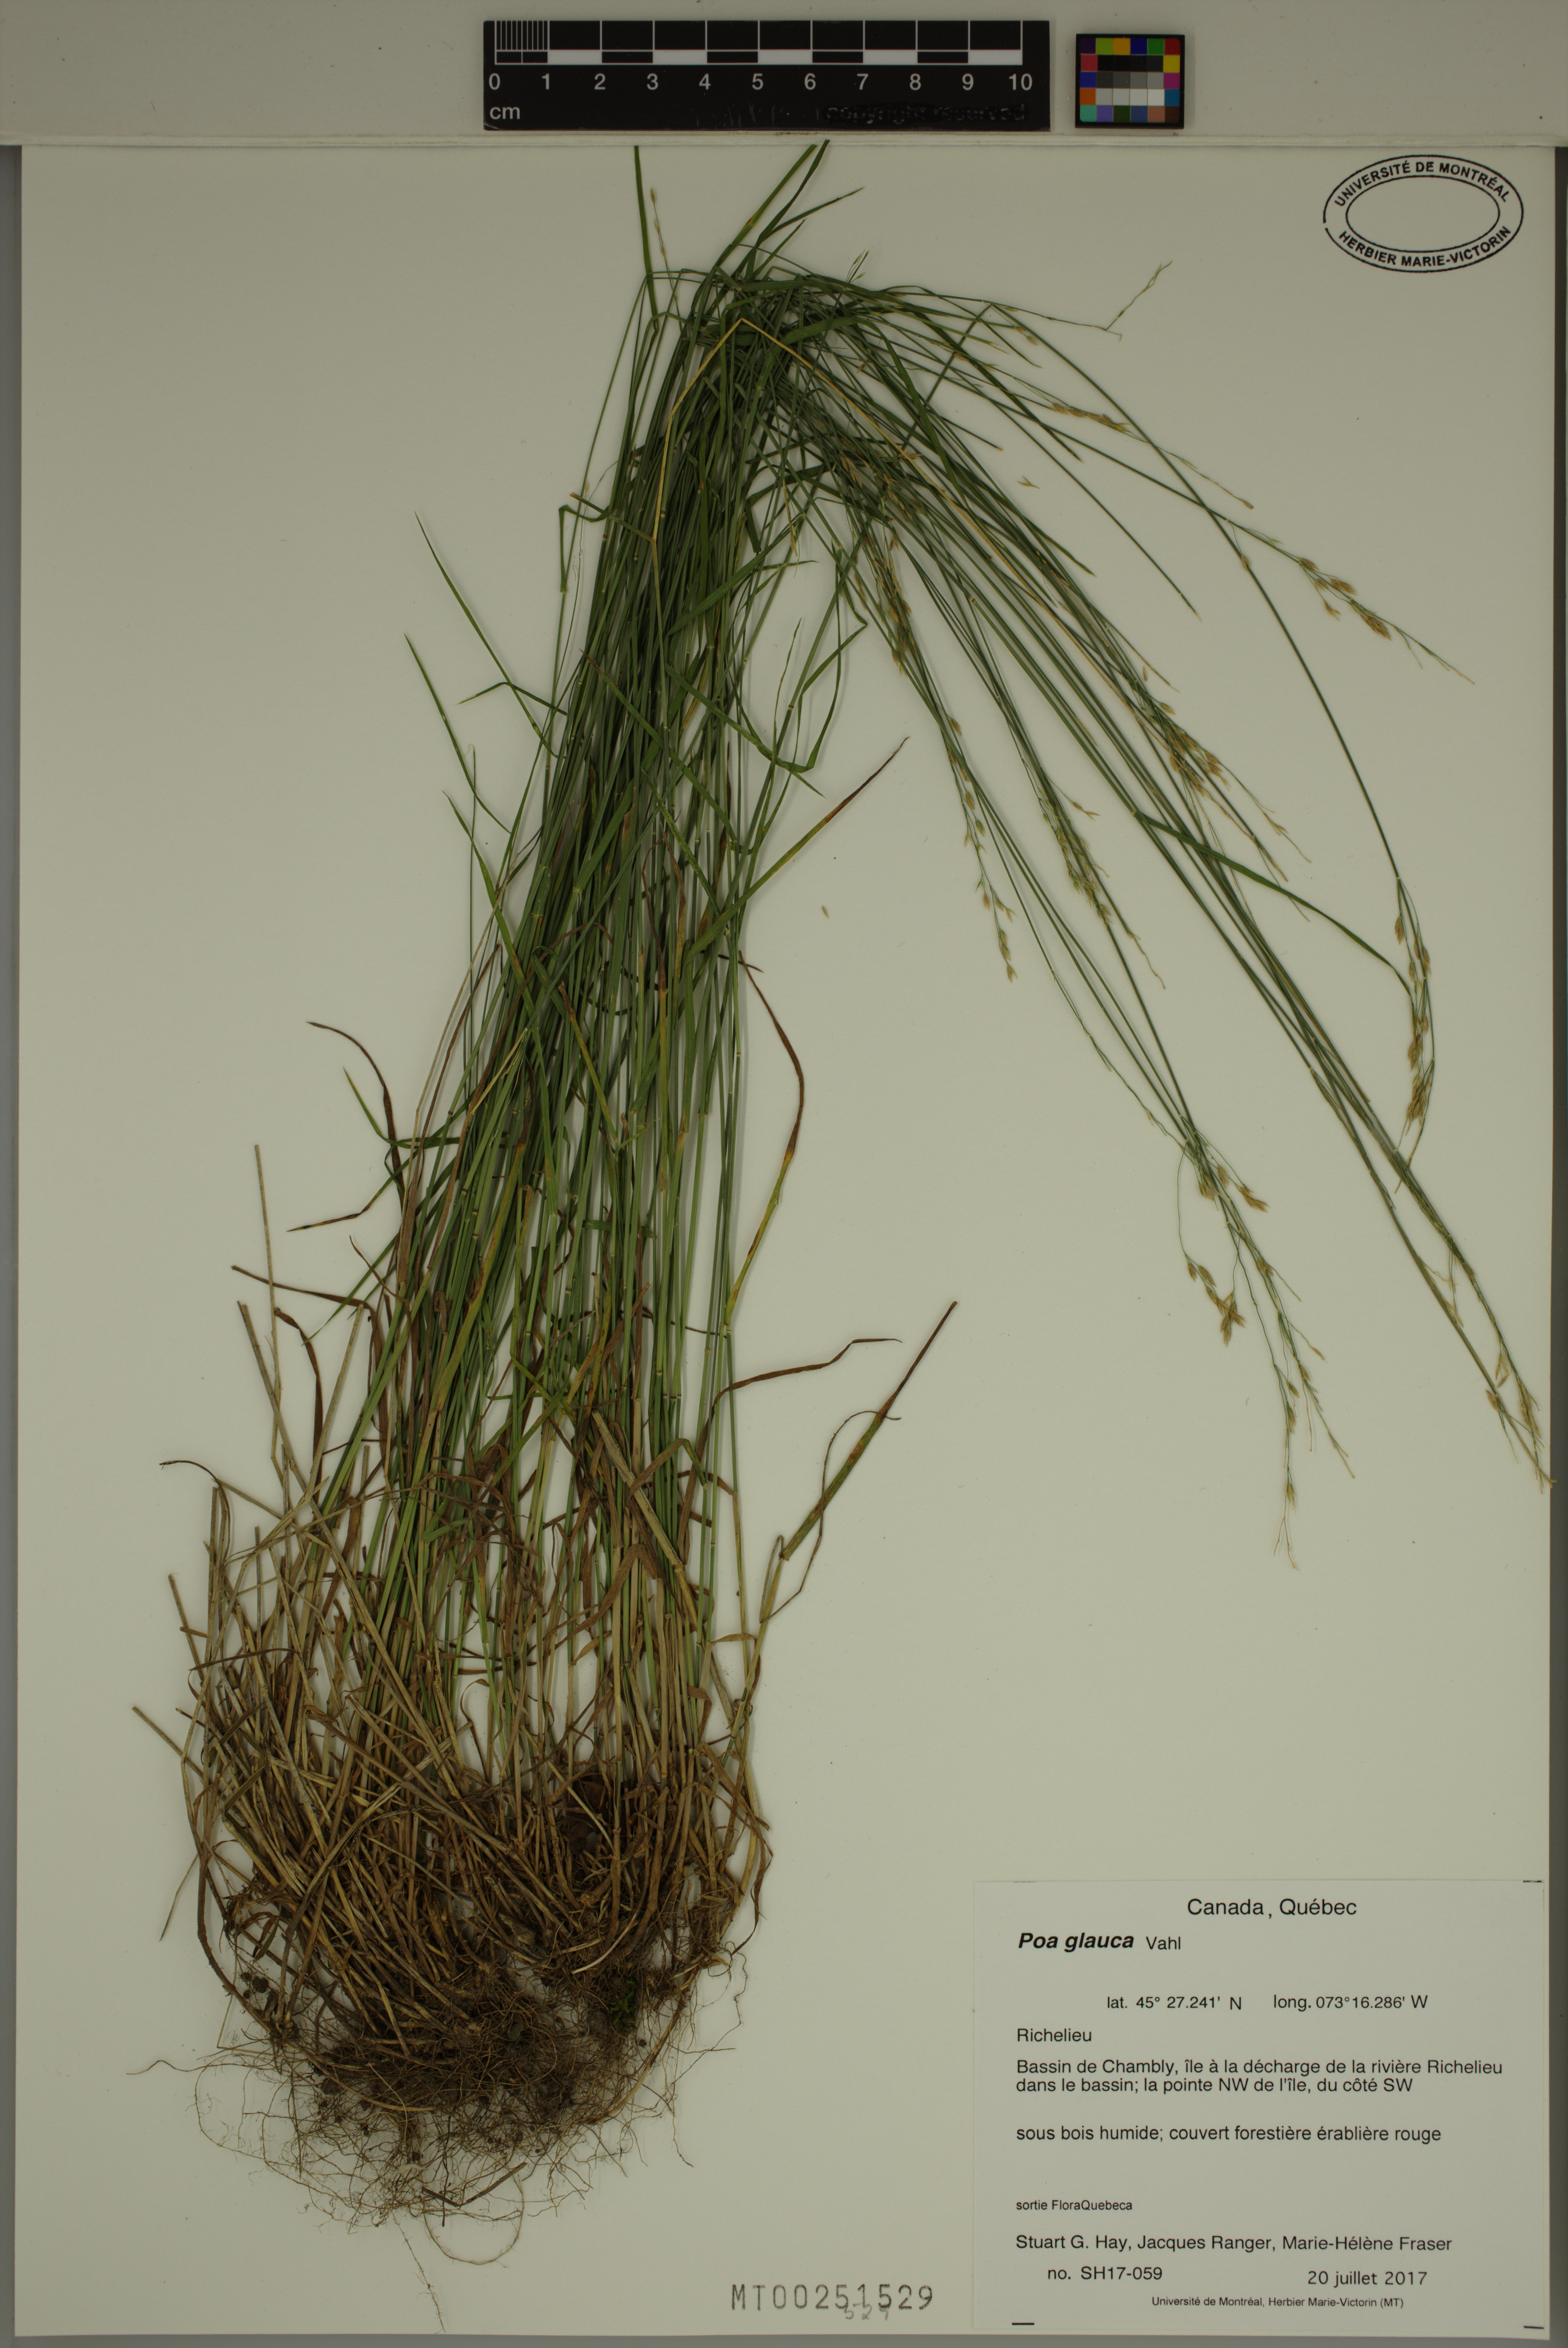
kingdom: Plantae
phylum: Tracheophyta
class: Liliopsida
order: Poales
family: Poaceae
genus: Poa
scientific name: Poa glauca
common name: Glaucous bluegrass
